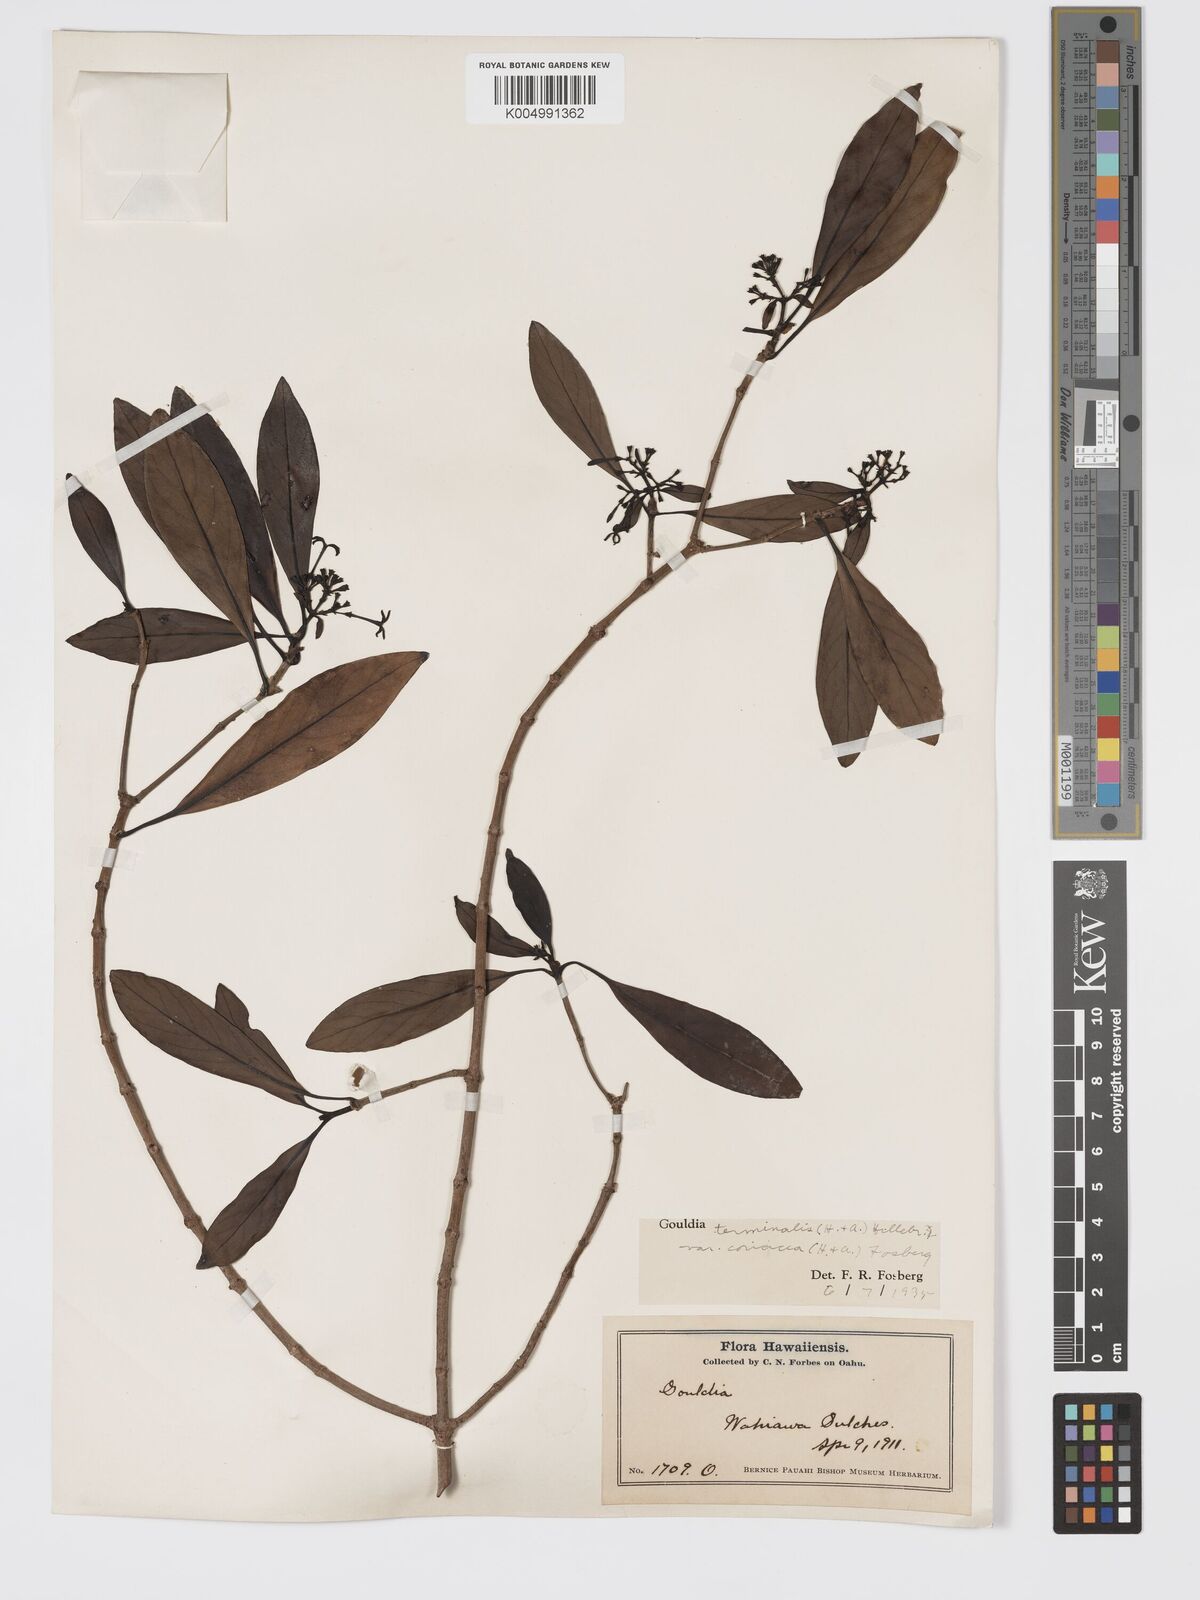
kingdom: Plantae
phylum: Tracheophyta
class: Magnoliopsida
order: Gentianales
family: Rubiaceae
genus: Kadua
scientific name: Kadua affinis
